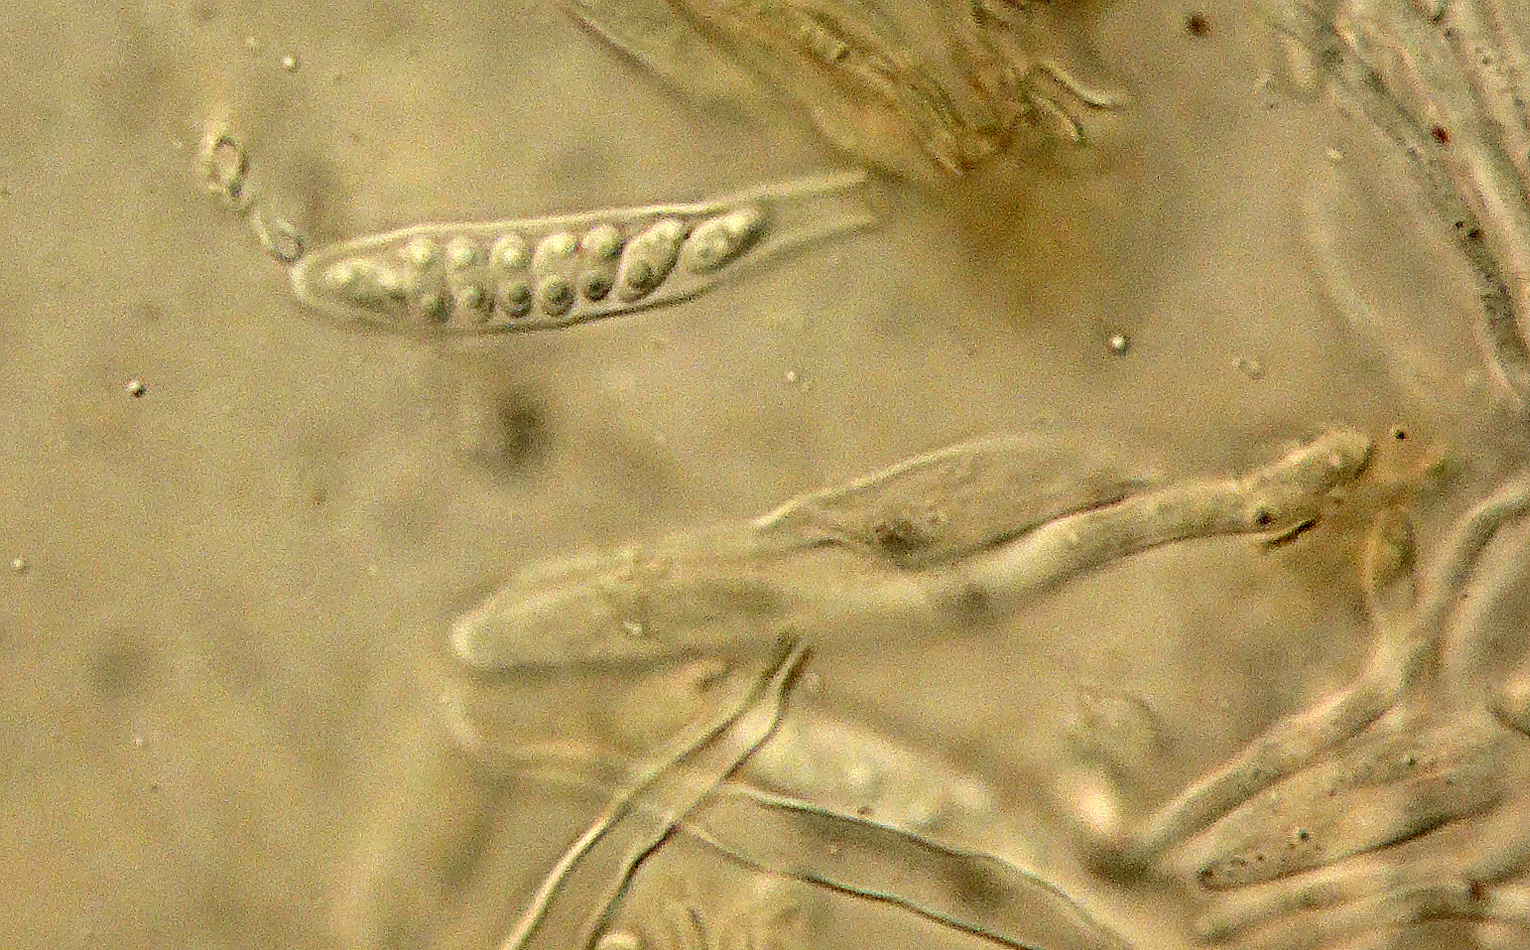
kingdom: Fungi
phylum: Ascomycota
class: Leotiomycetes
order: Helotiales
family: Hyphodiscaceae
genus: Hyphodiscus
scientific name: Hyphodiscus smaragdinus
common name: grønlig sirskive
